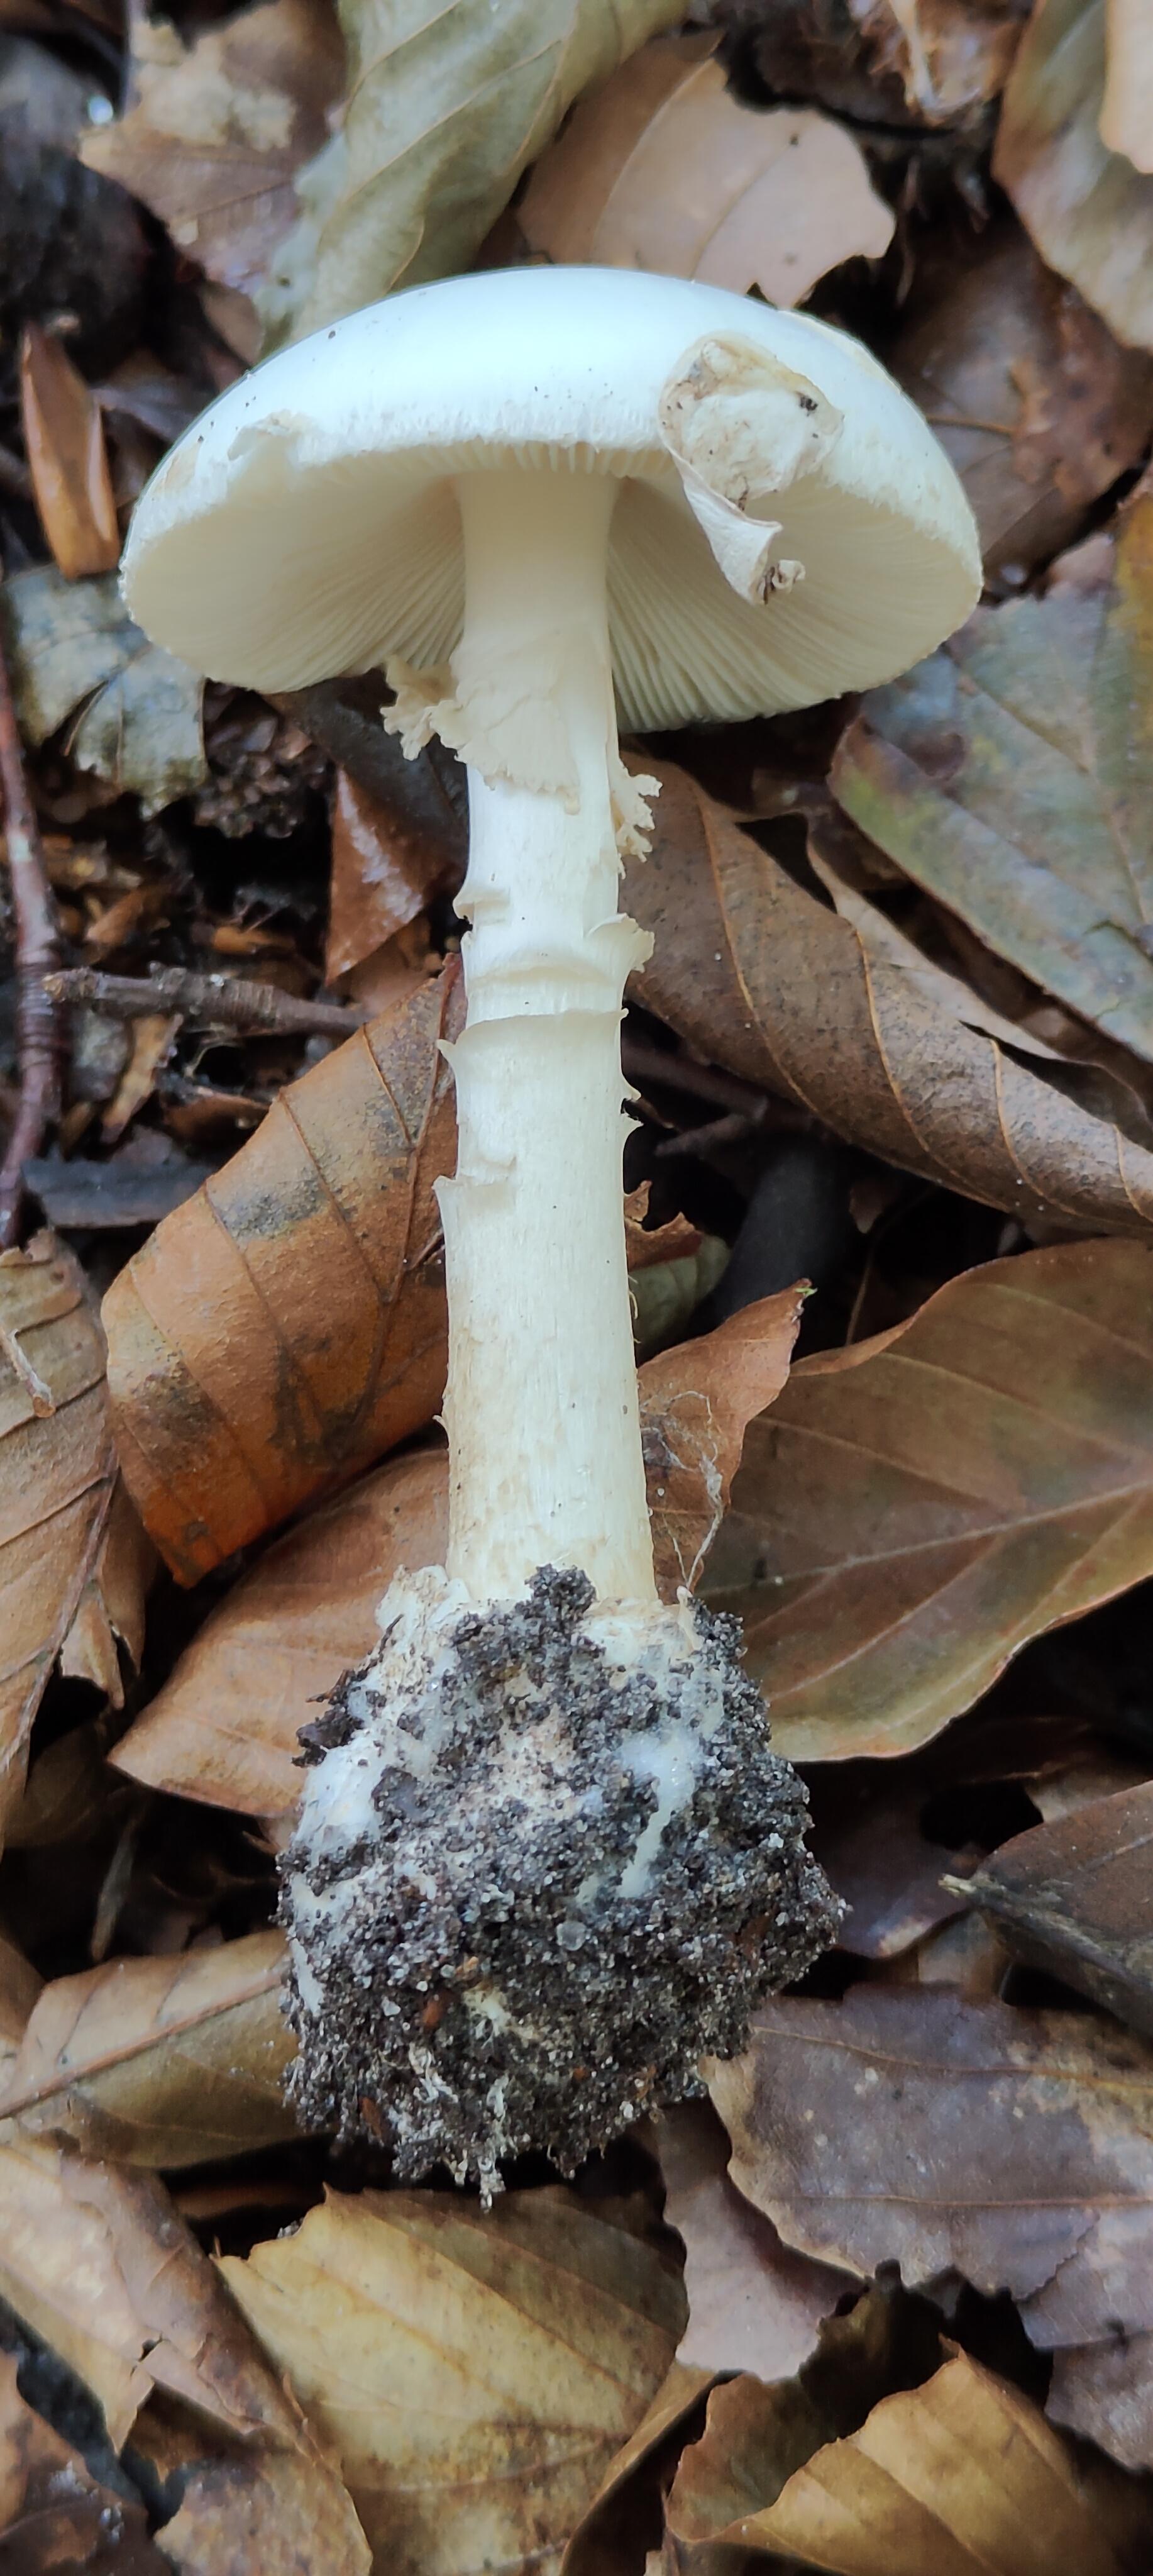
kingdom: Fungi
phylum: Basidiomycota
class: Agaricomycetes
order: Agaricales
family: Amanitaceae
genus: Amanita
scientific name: Amanita citrina
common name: kugleknoldet fluesvamp
